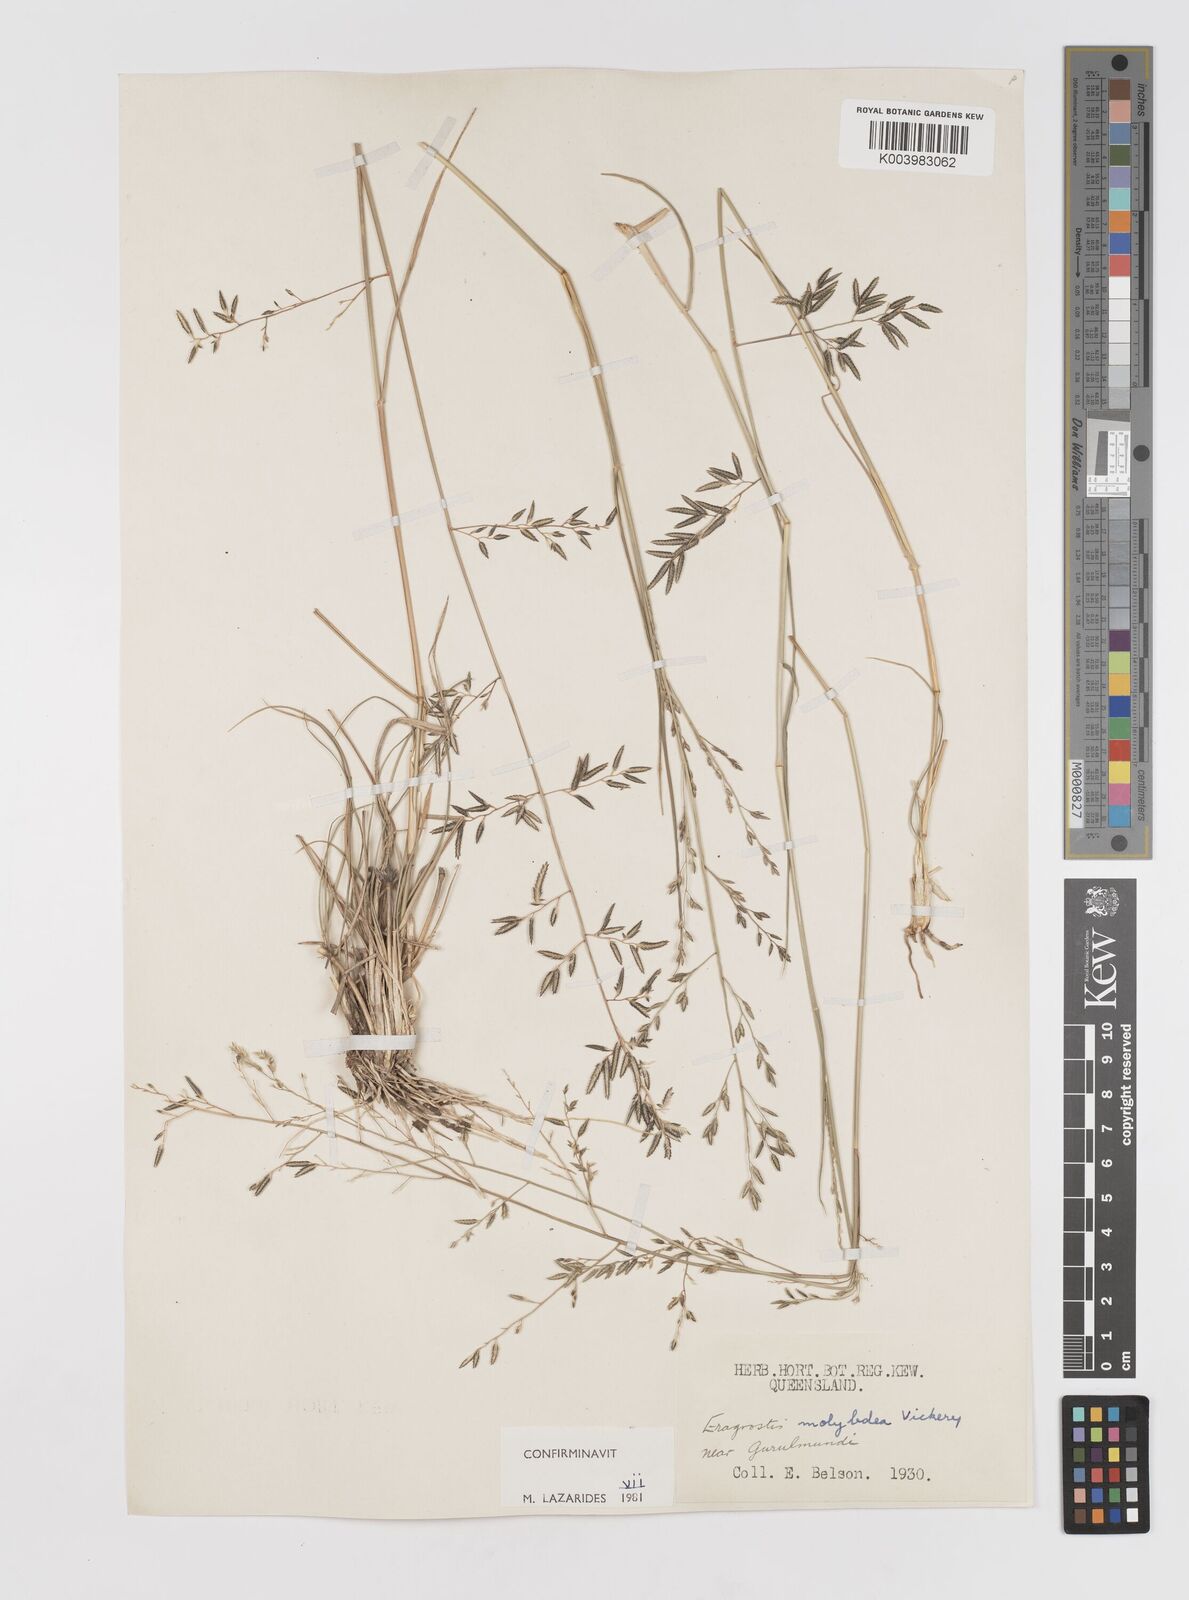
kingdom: Plantae
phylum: Tracheophyta
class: Liliopsida
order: Poales
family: Poaceae
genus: Eragrostis
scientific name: Eragrostis leptostachya
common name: Australian lovegrass
